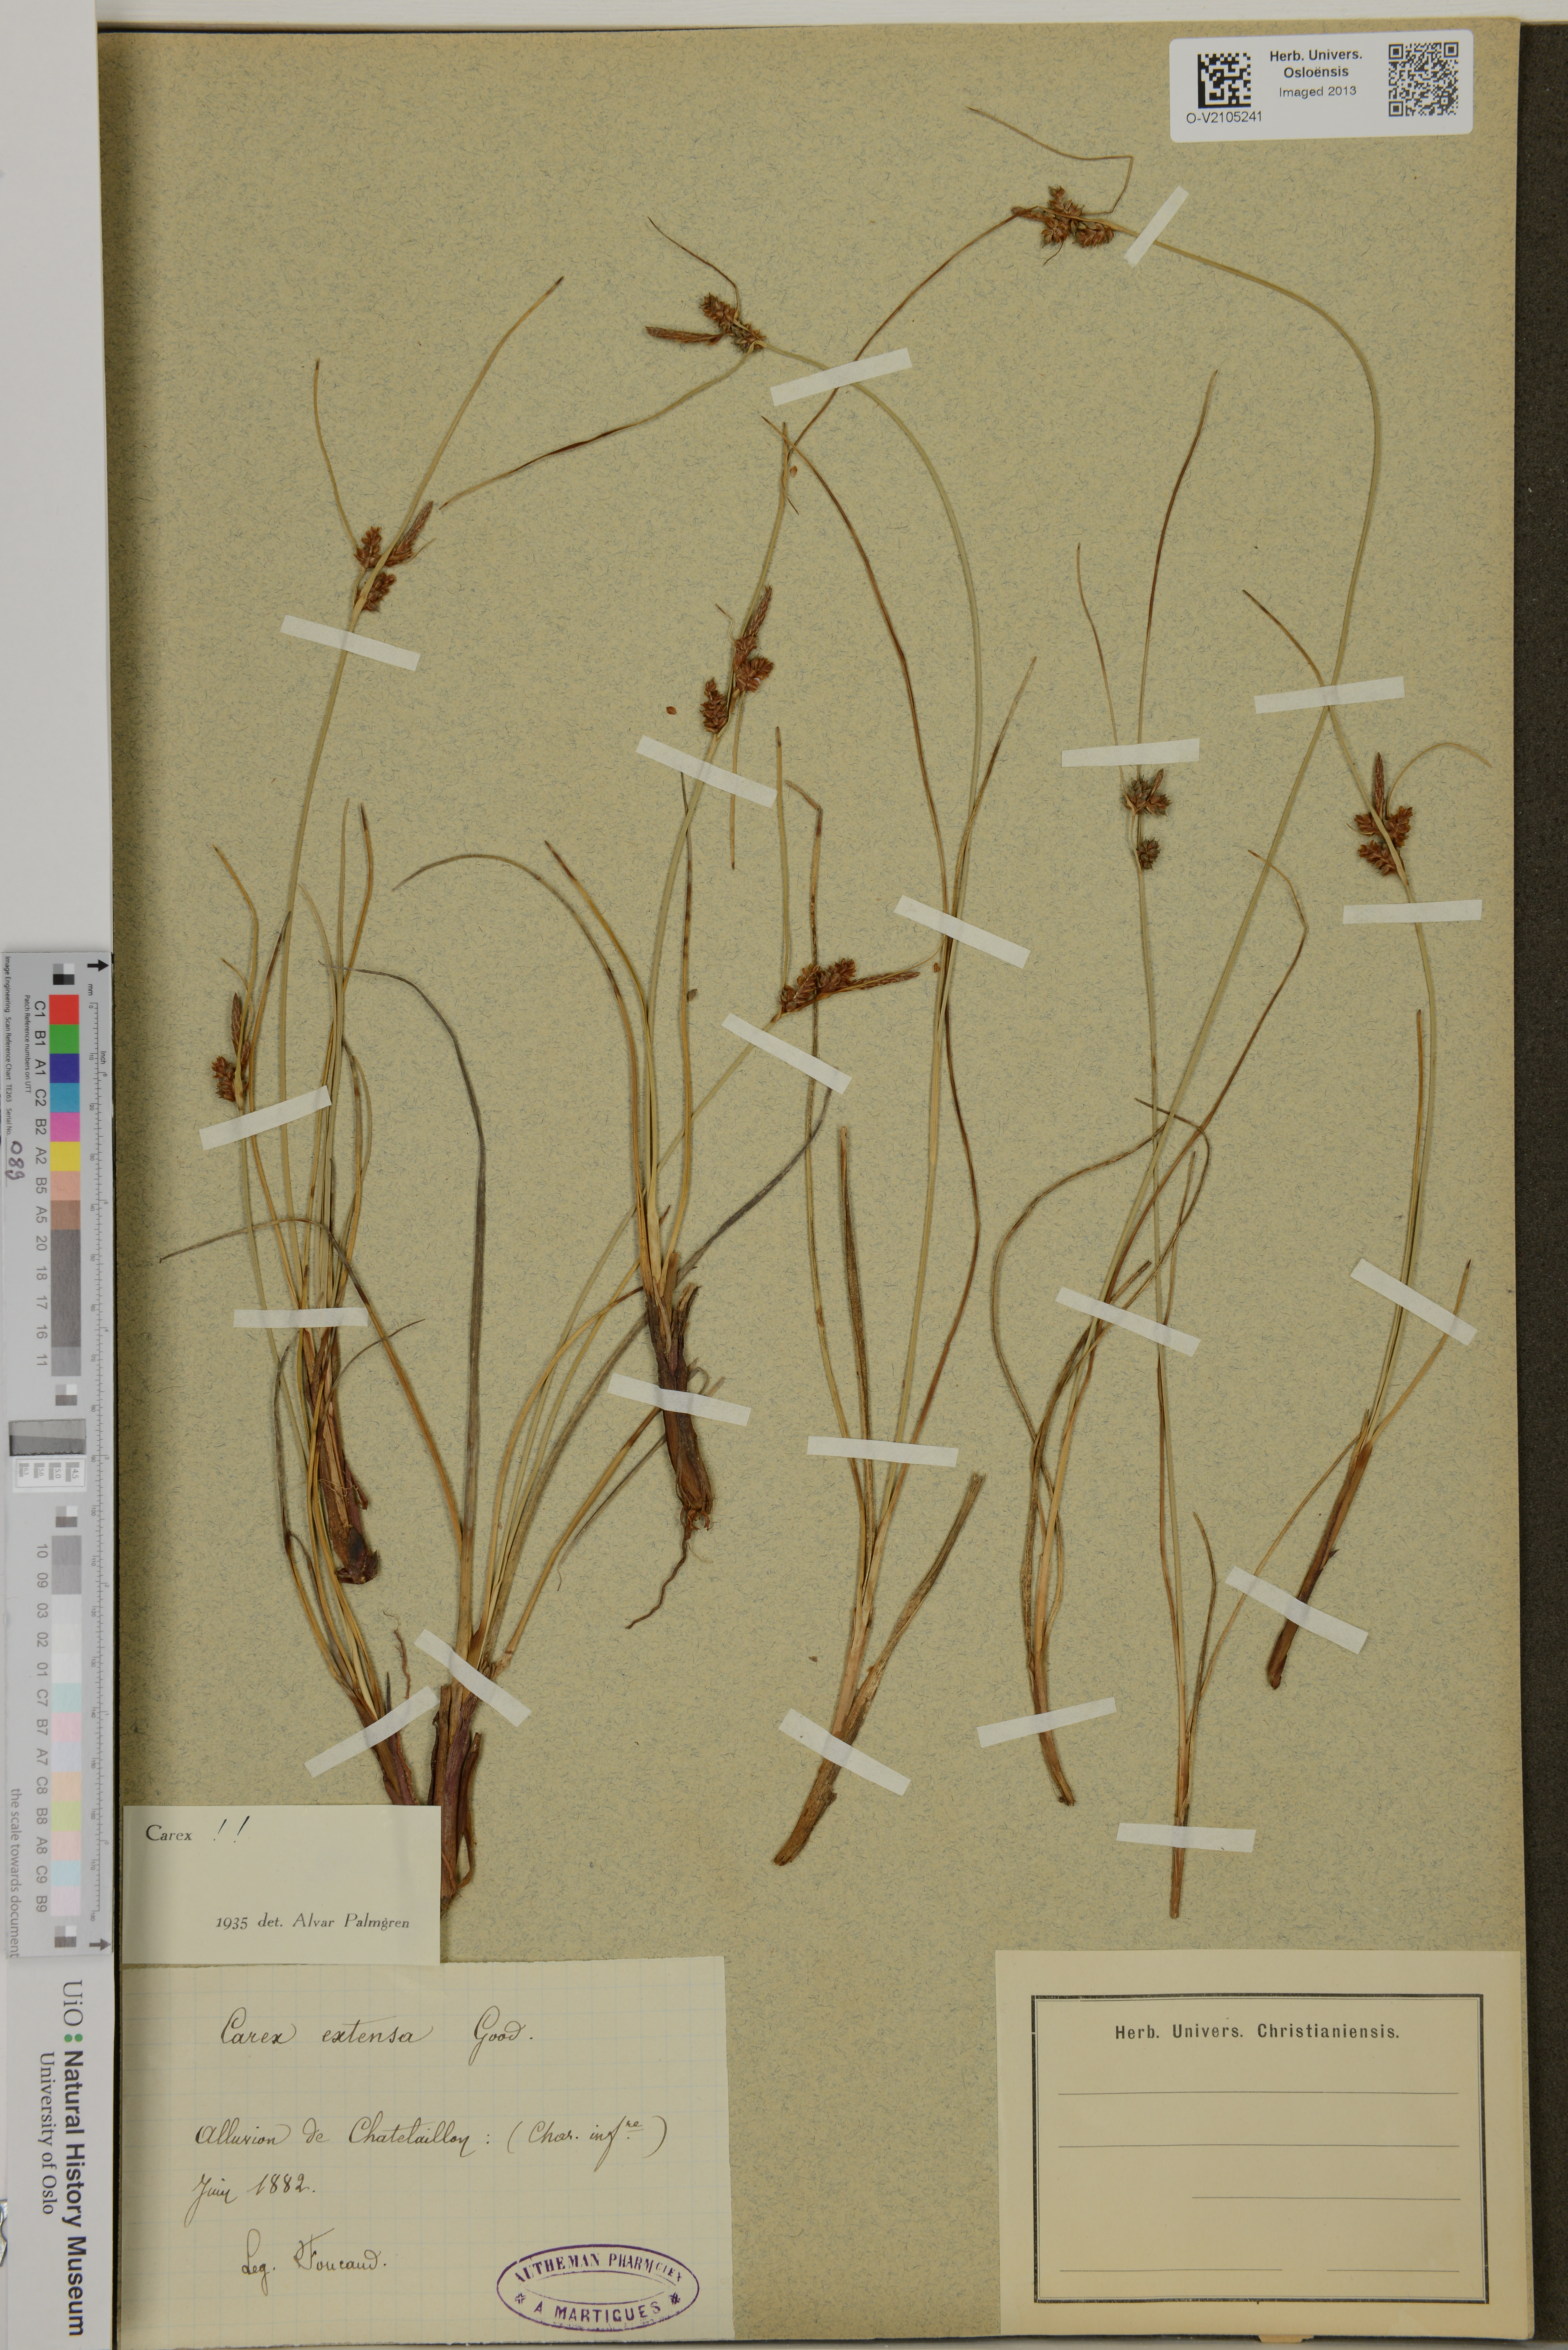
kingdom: Plantae
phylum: Tracheophyta
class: Liliopsida
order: Poales
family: Cyperaceae
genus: Carex
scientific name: Carex extensa
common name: Long-bracted sedge
